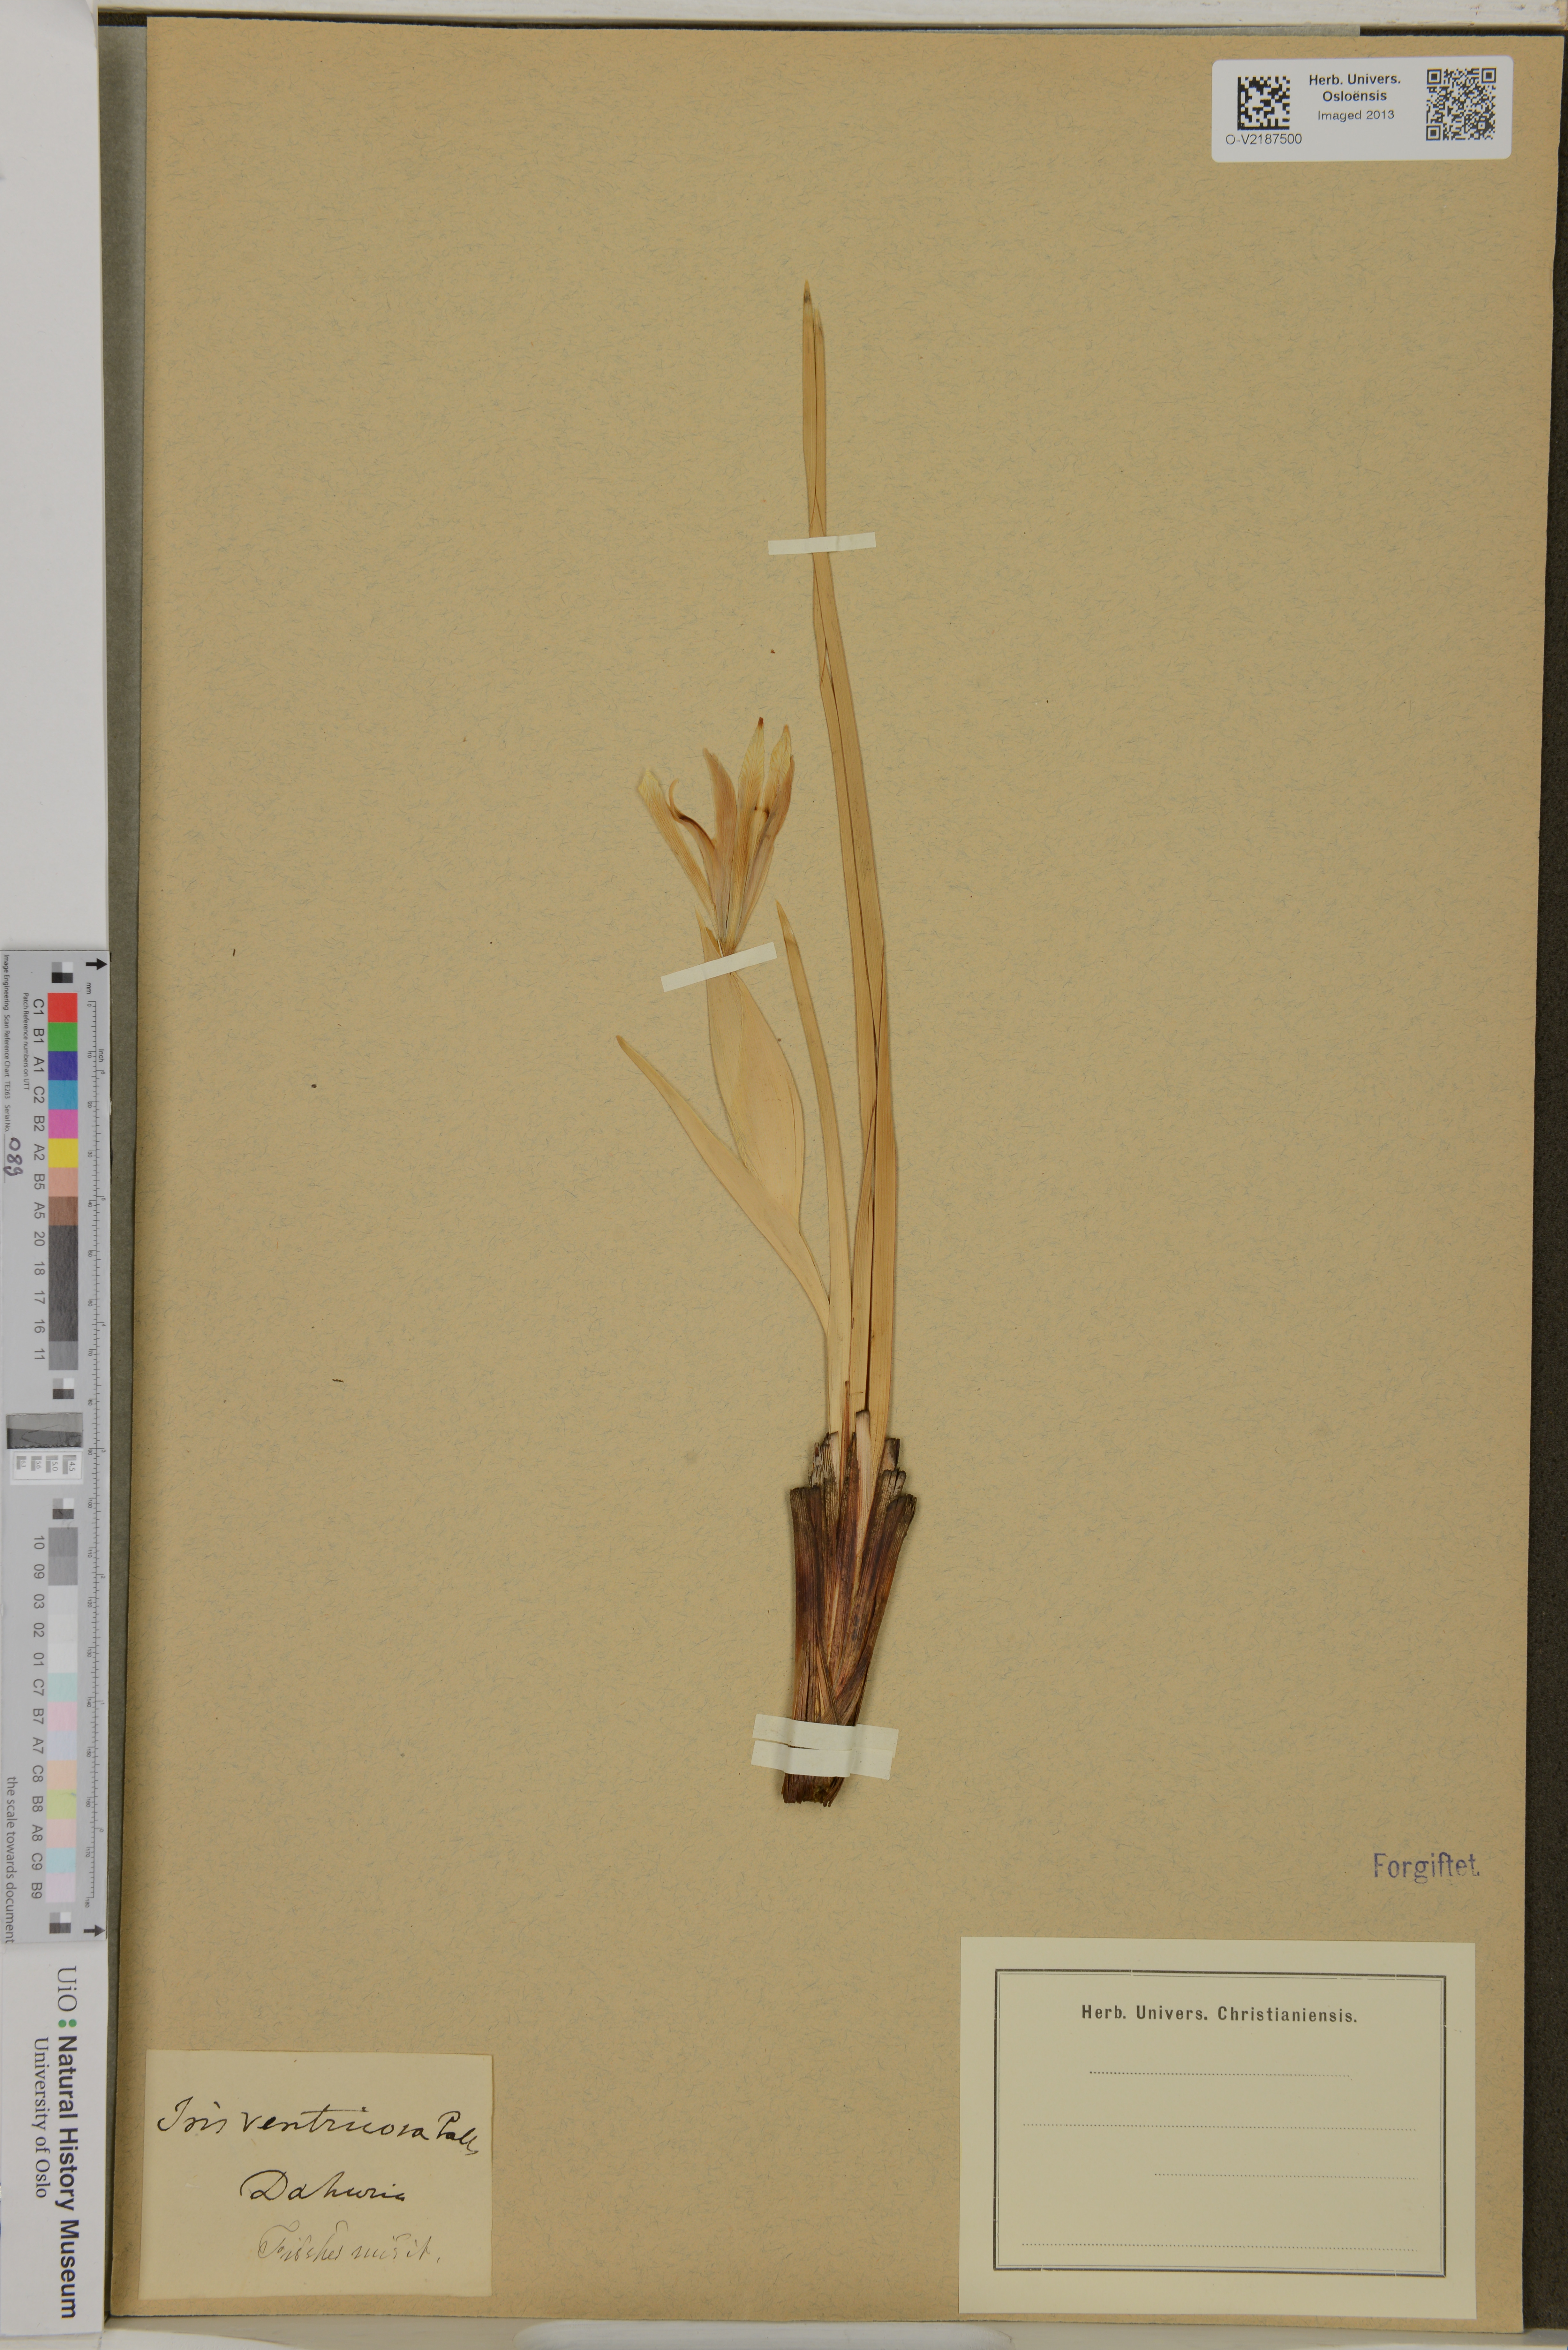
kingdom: Plantae
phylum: Tracheophyta
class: Liliopsida
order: Asparagales
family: Iridaceae
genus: Iris
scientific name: Iris ventricosa
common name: Purple-flower iris
